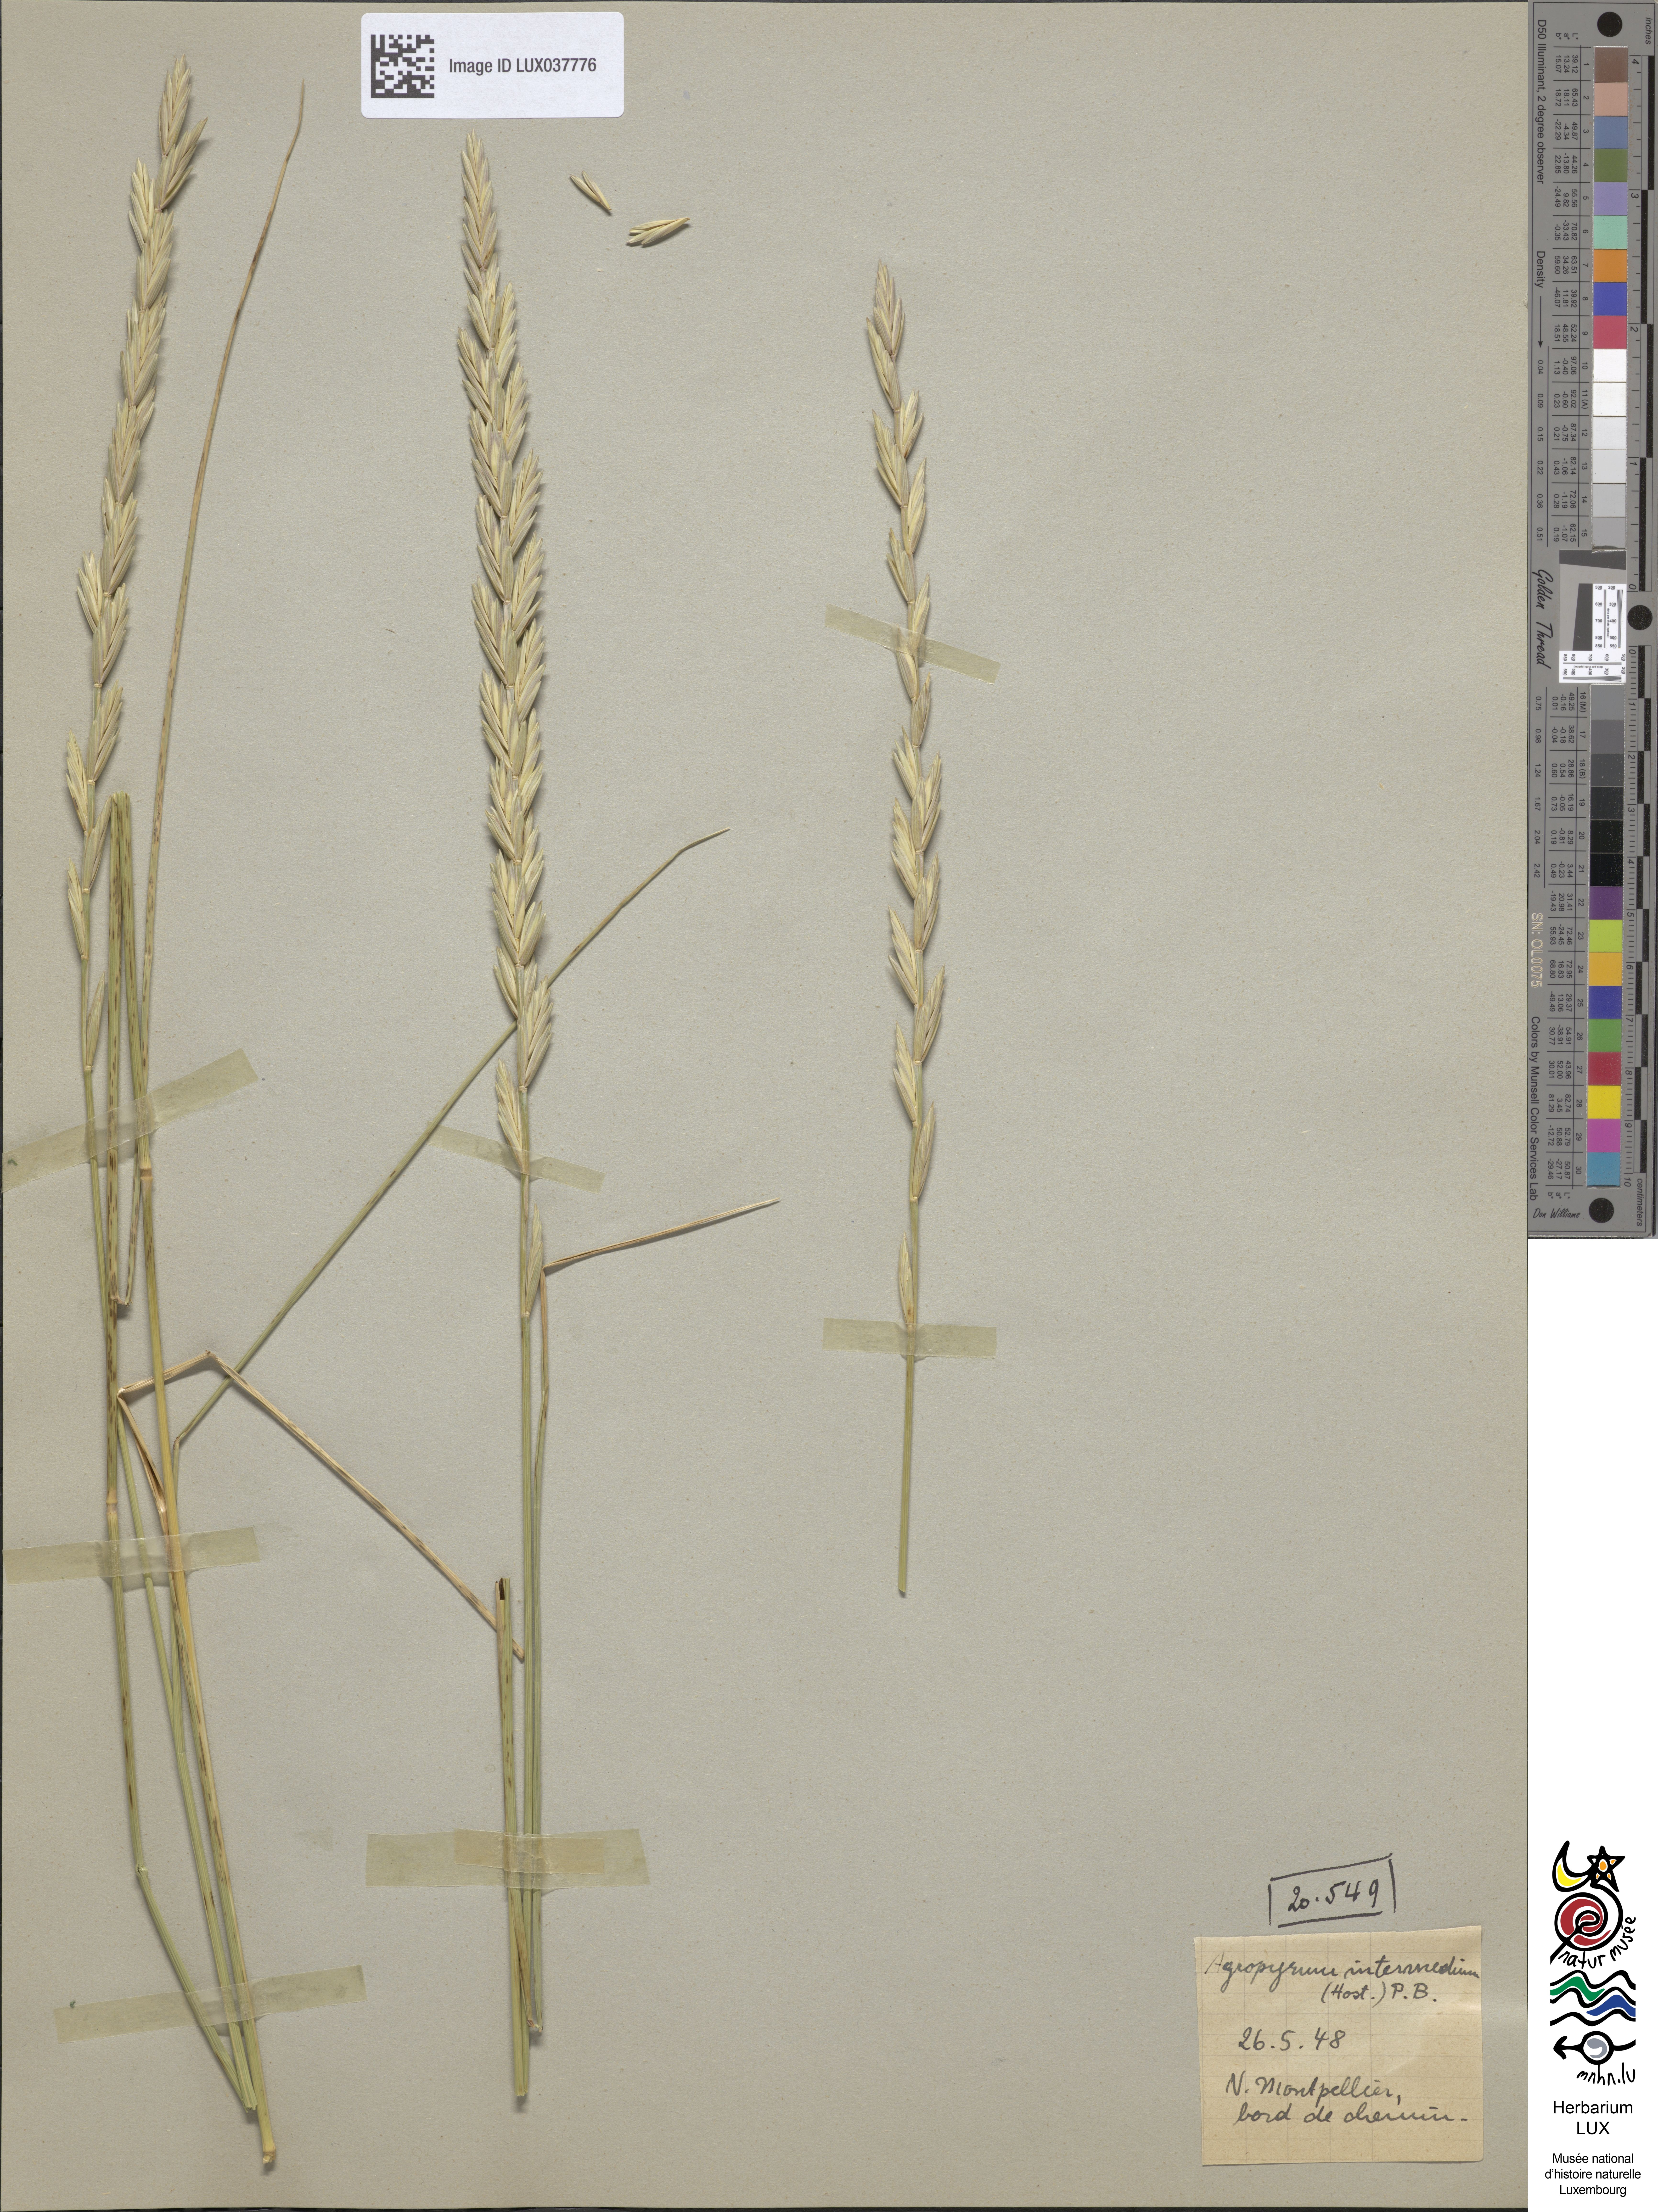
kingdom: Plantae
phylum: Tracheophyta
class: Liliopsida
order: Poales
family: Poaceae
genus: Thinopyrum
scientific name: Thinopyrum intermedium
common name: Intermediate wheatgrass
